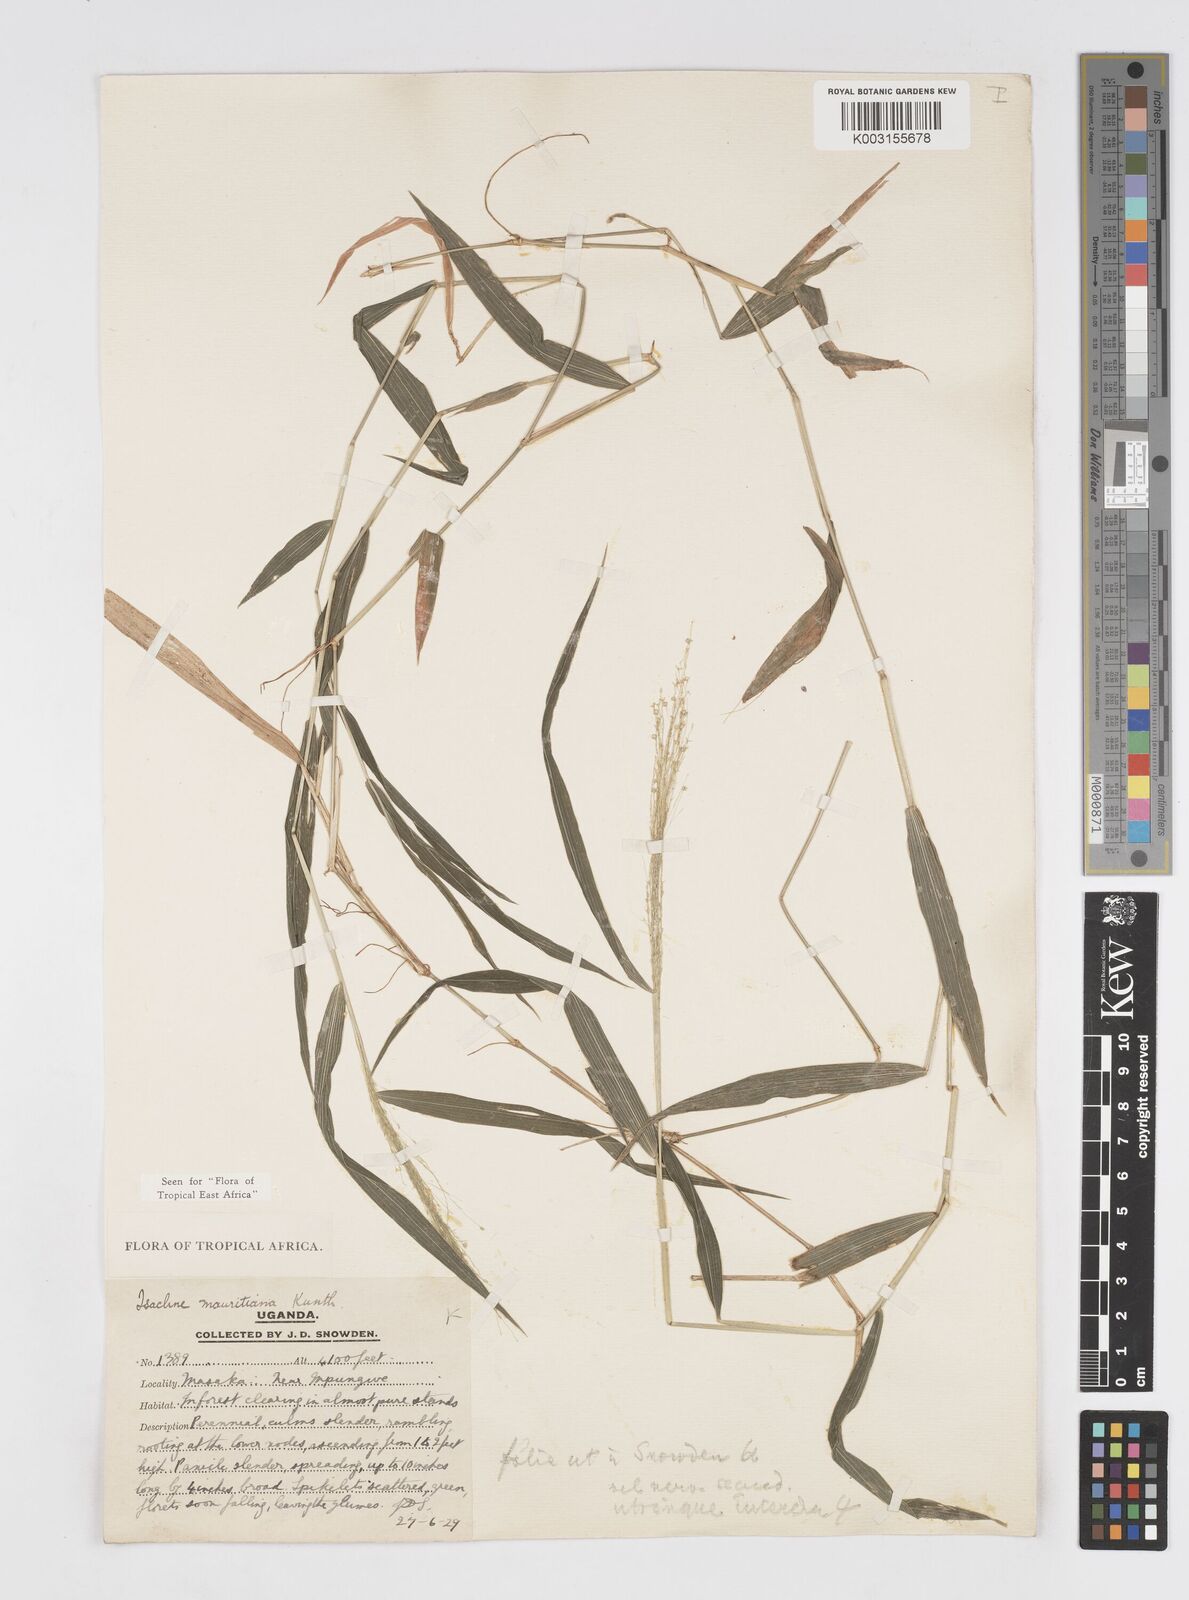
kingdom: Plantae
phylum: Tracheophyta
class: Liliopsida
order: Poales
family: Poaceae
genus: Isachne
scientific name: Isachne mauritiana
